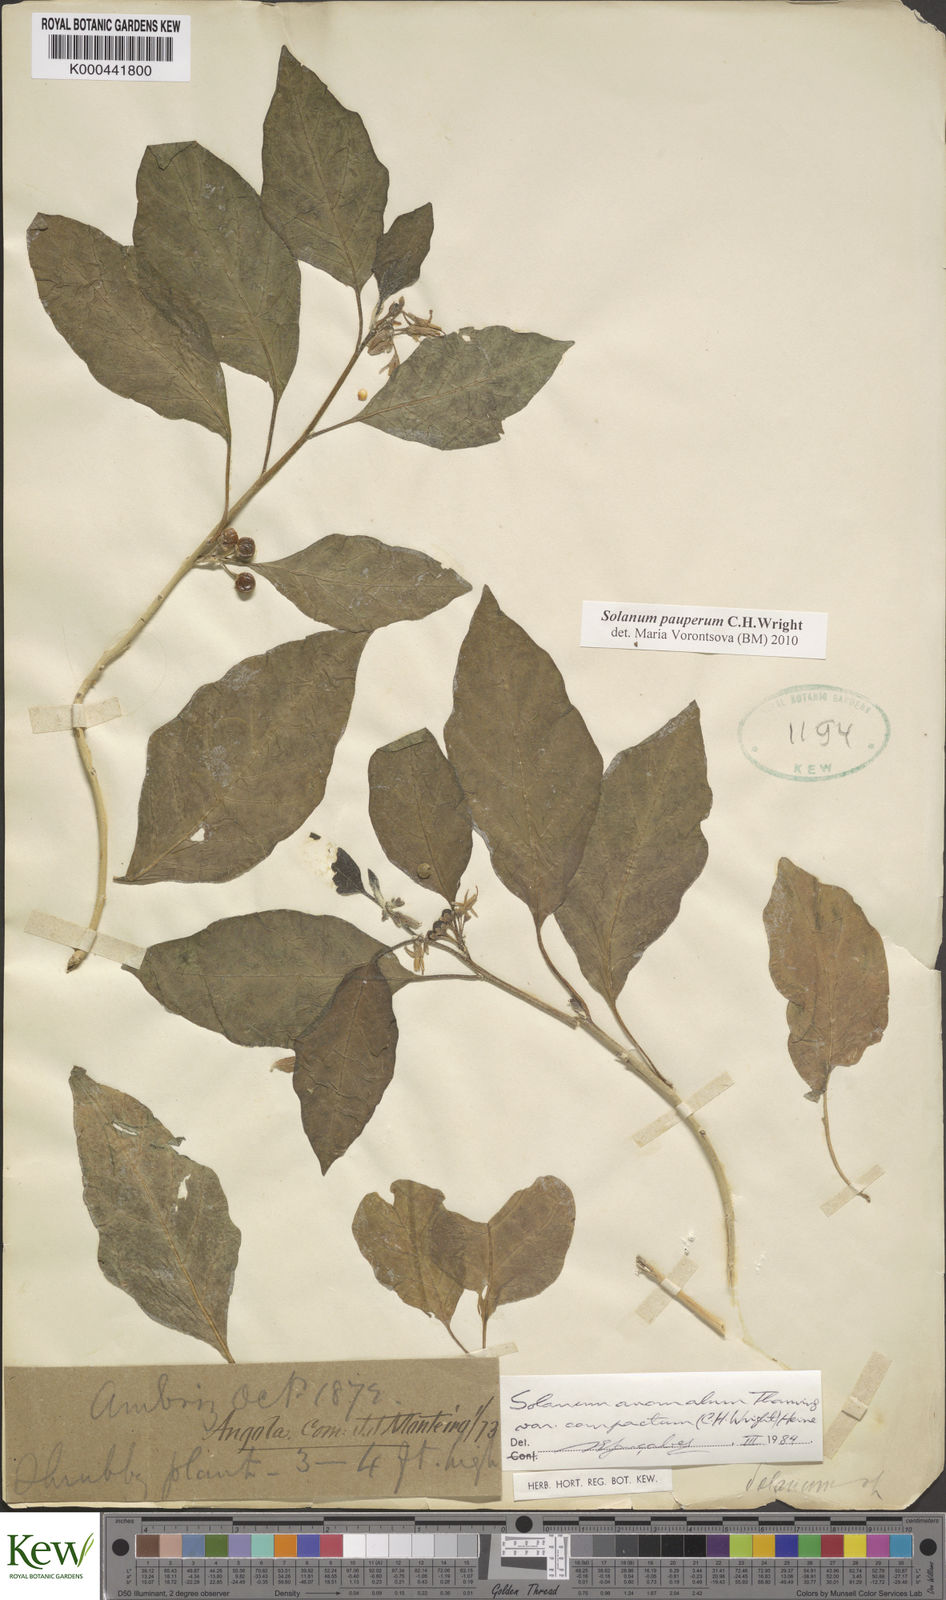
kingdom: Plantae
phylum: Tracheophyta
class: Magnoliopsida
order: Solanales
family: Solanaceae
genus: Solanum
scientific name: Solanum anomalum
